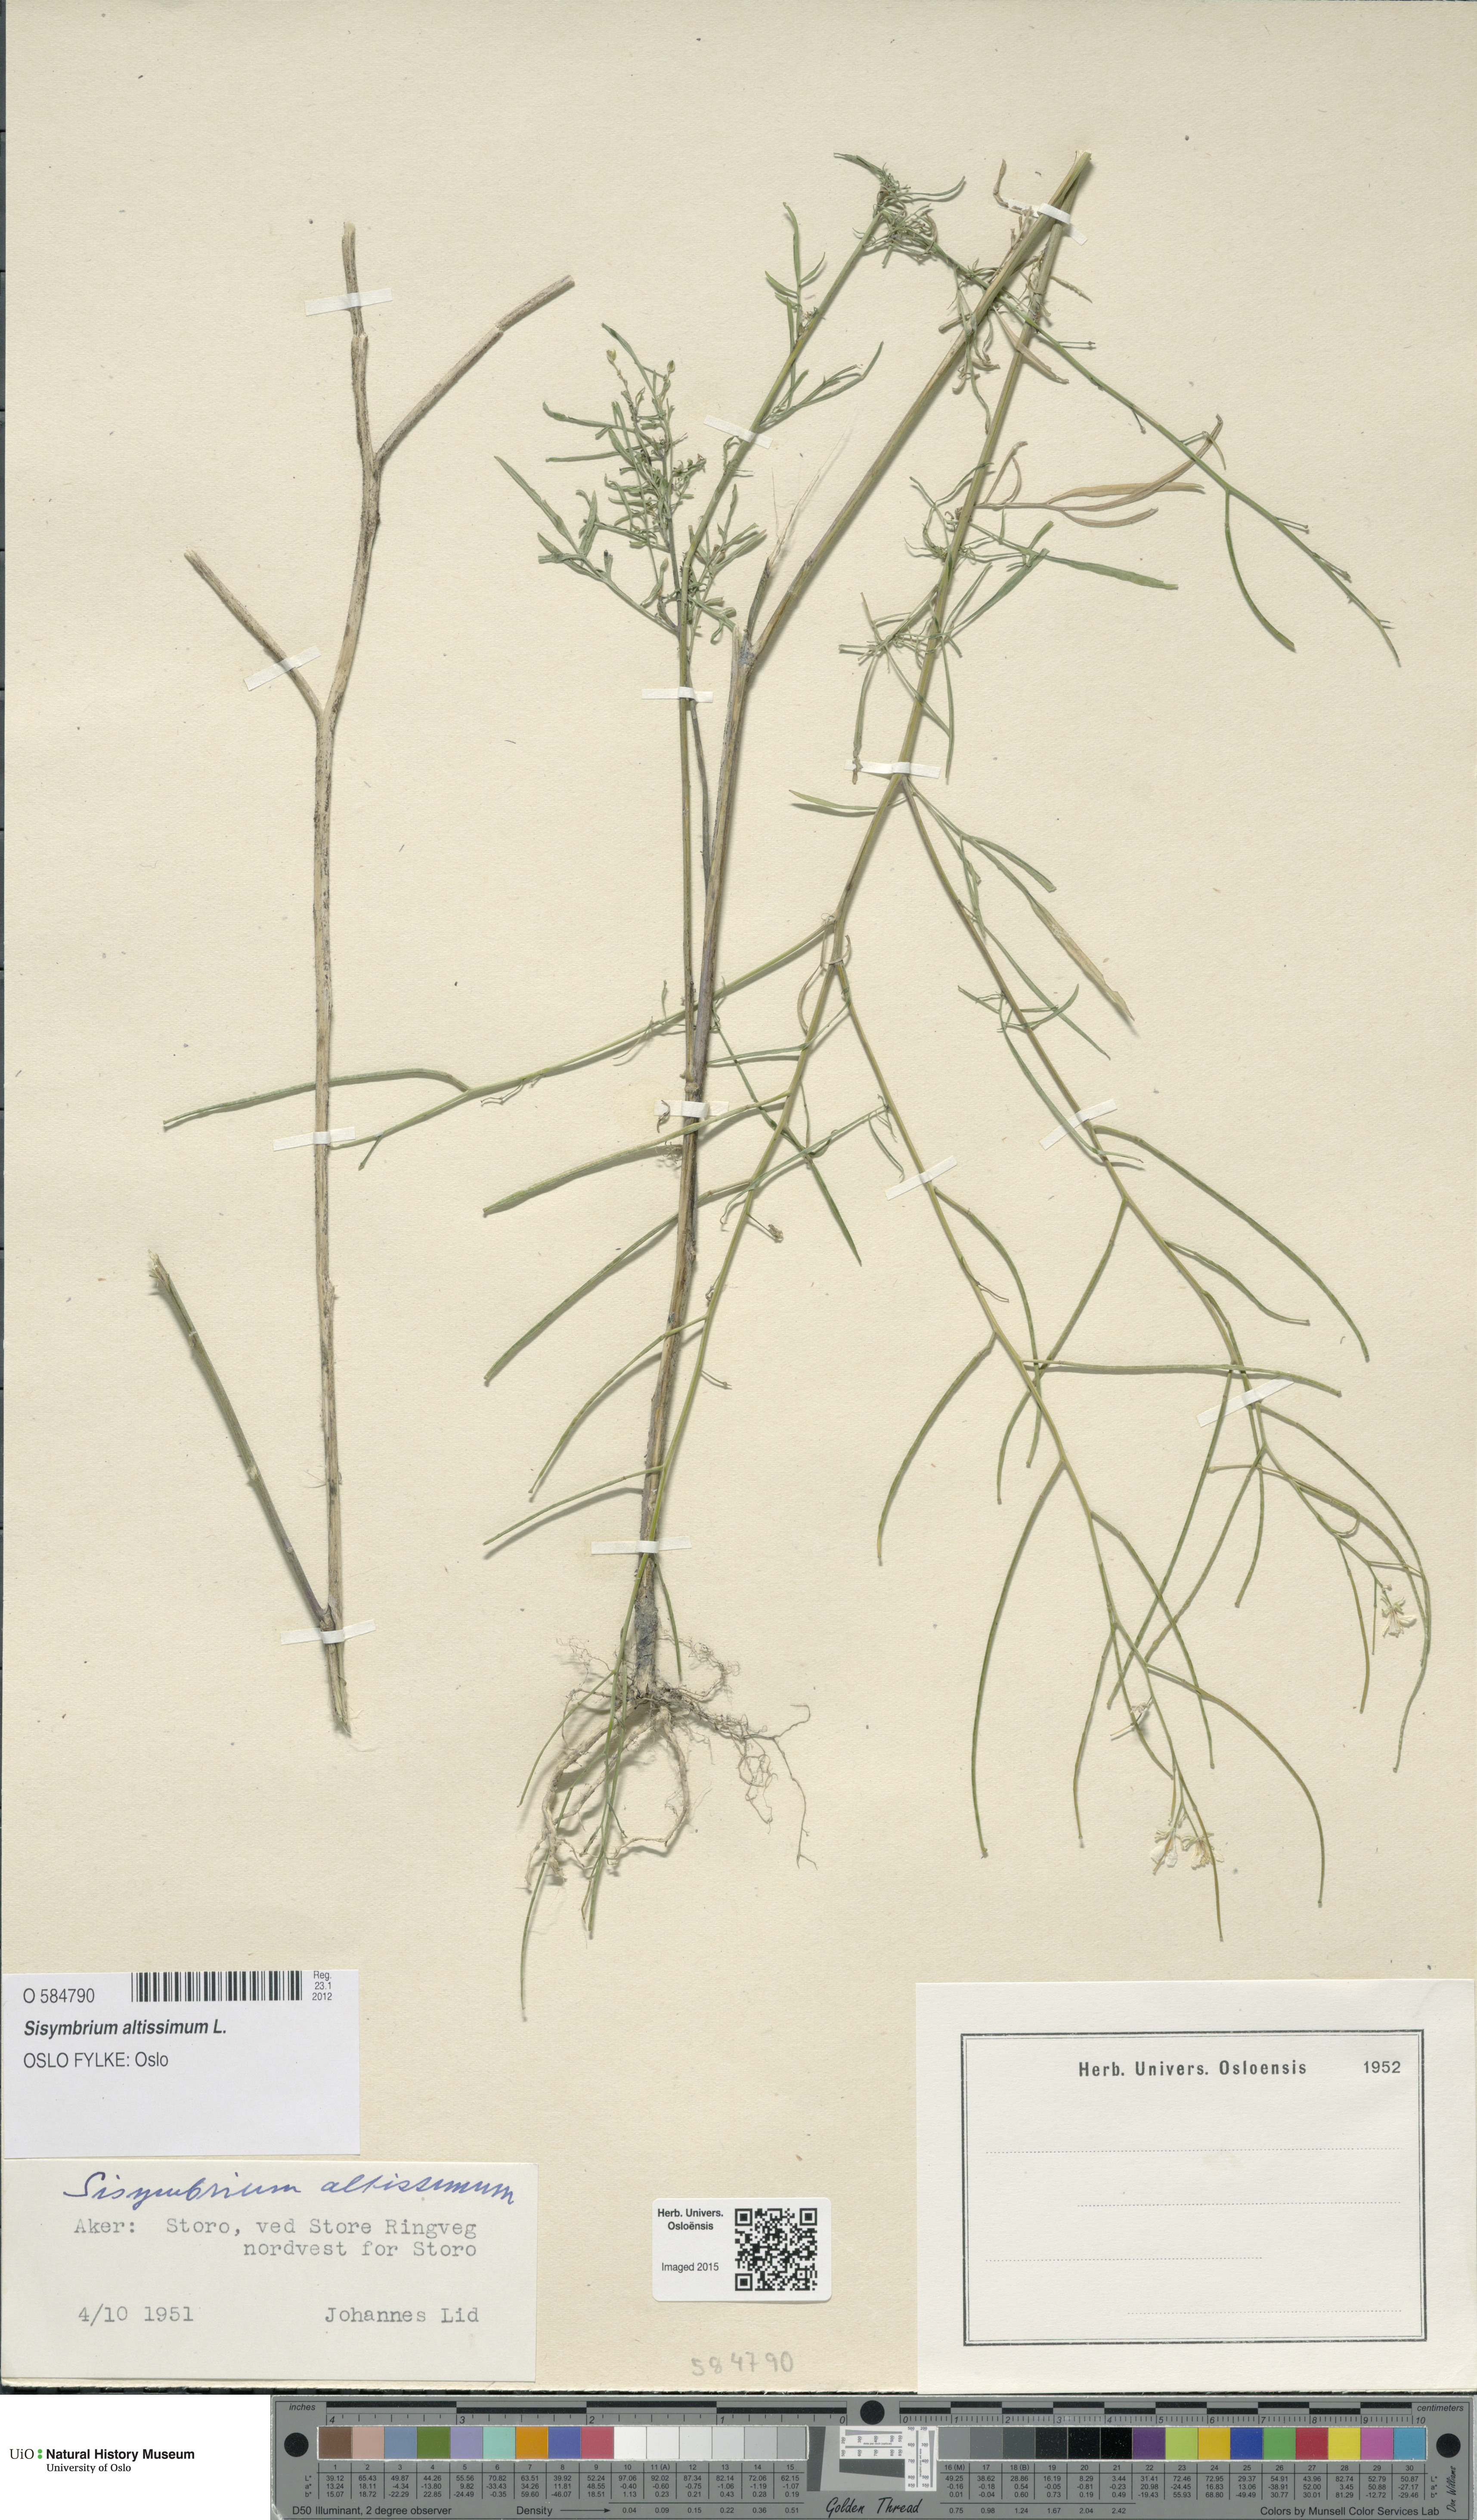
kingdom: Plantae
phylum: Tracheophyta
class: Magnoliopsida
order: Brassicales
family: Brassicaceae
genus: Sisymbrium
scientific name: Sisymbrium altissimum
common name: Tall rocket
